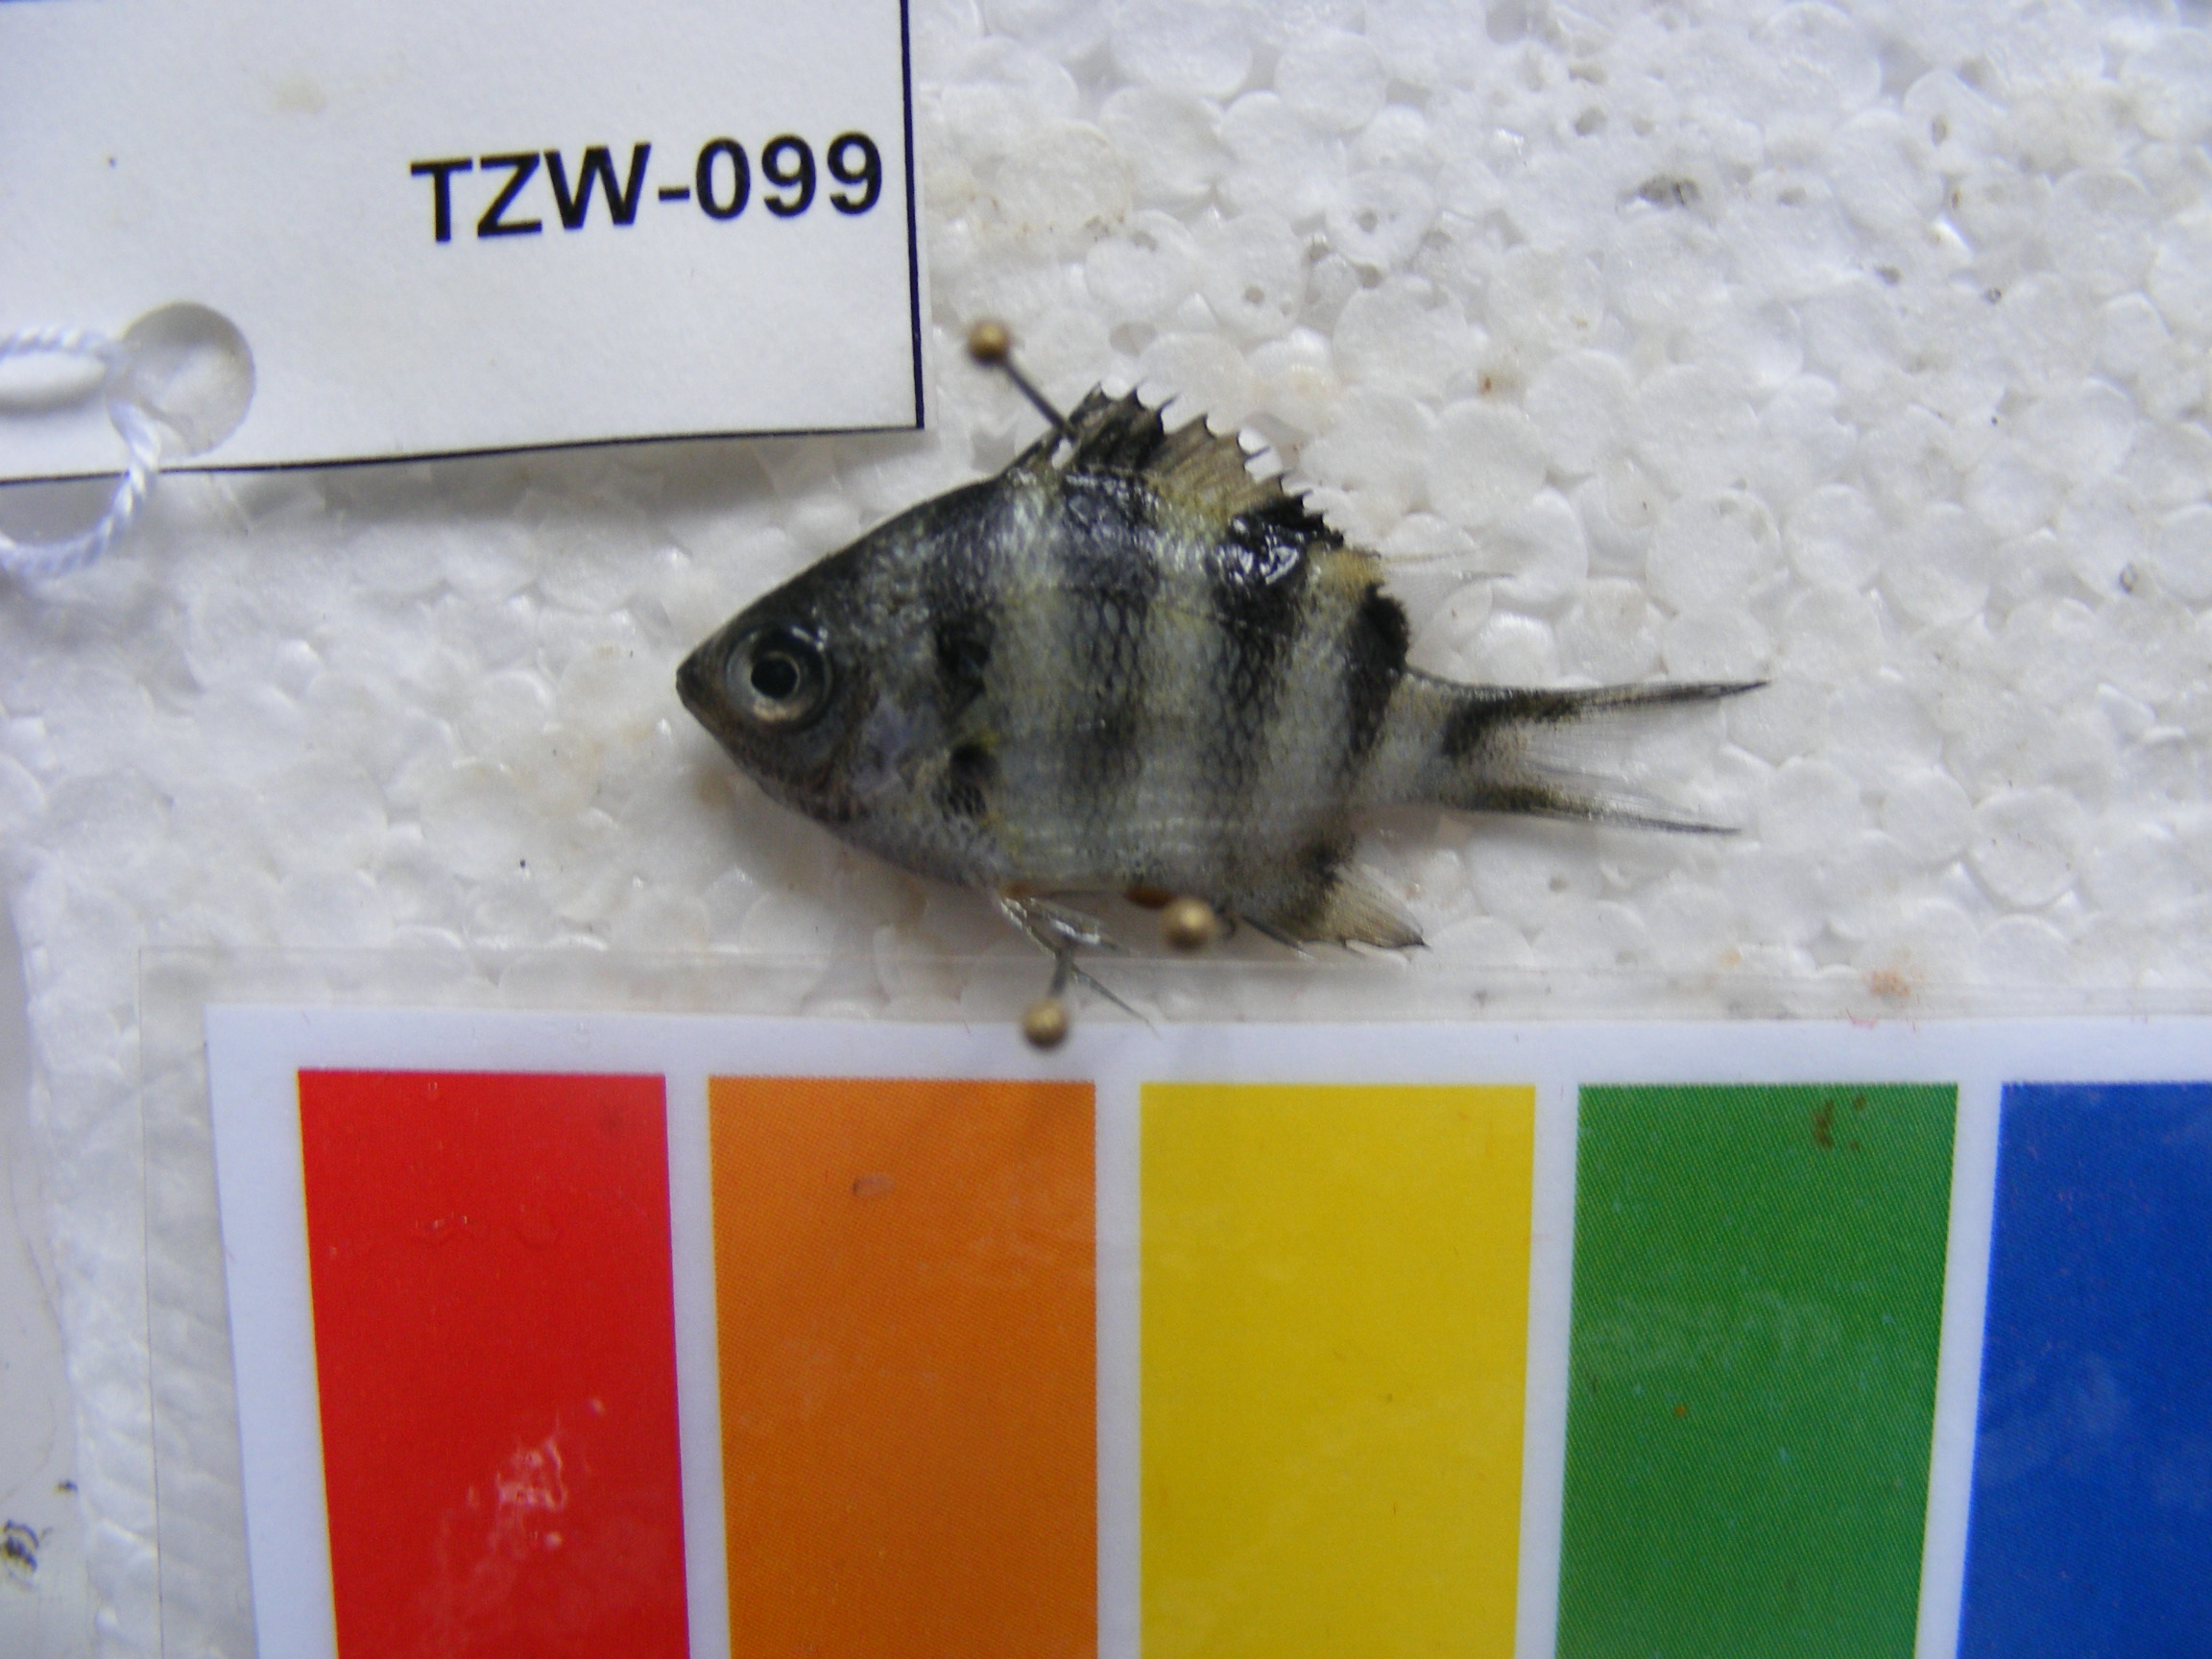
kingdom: Animalia
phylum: Chordata
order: Perciformes
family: Pomacentridae
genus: Abudefduf
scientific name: Abudefduf sexfasciatus
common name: Scissortail sergeant
